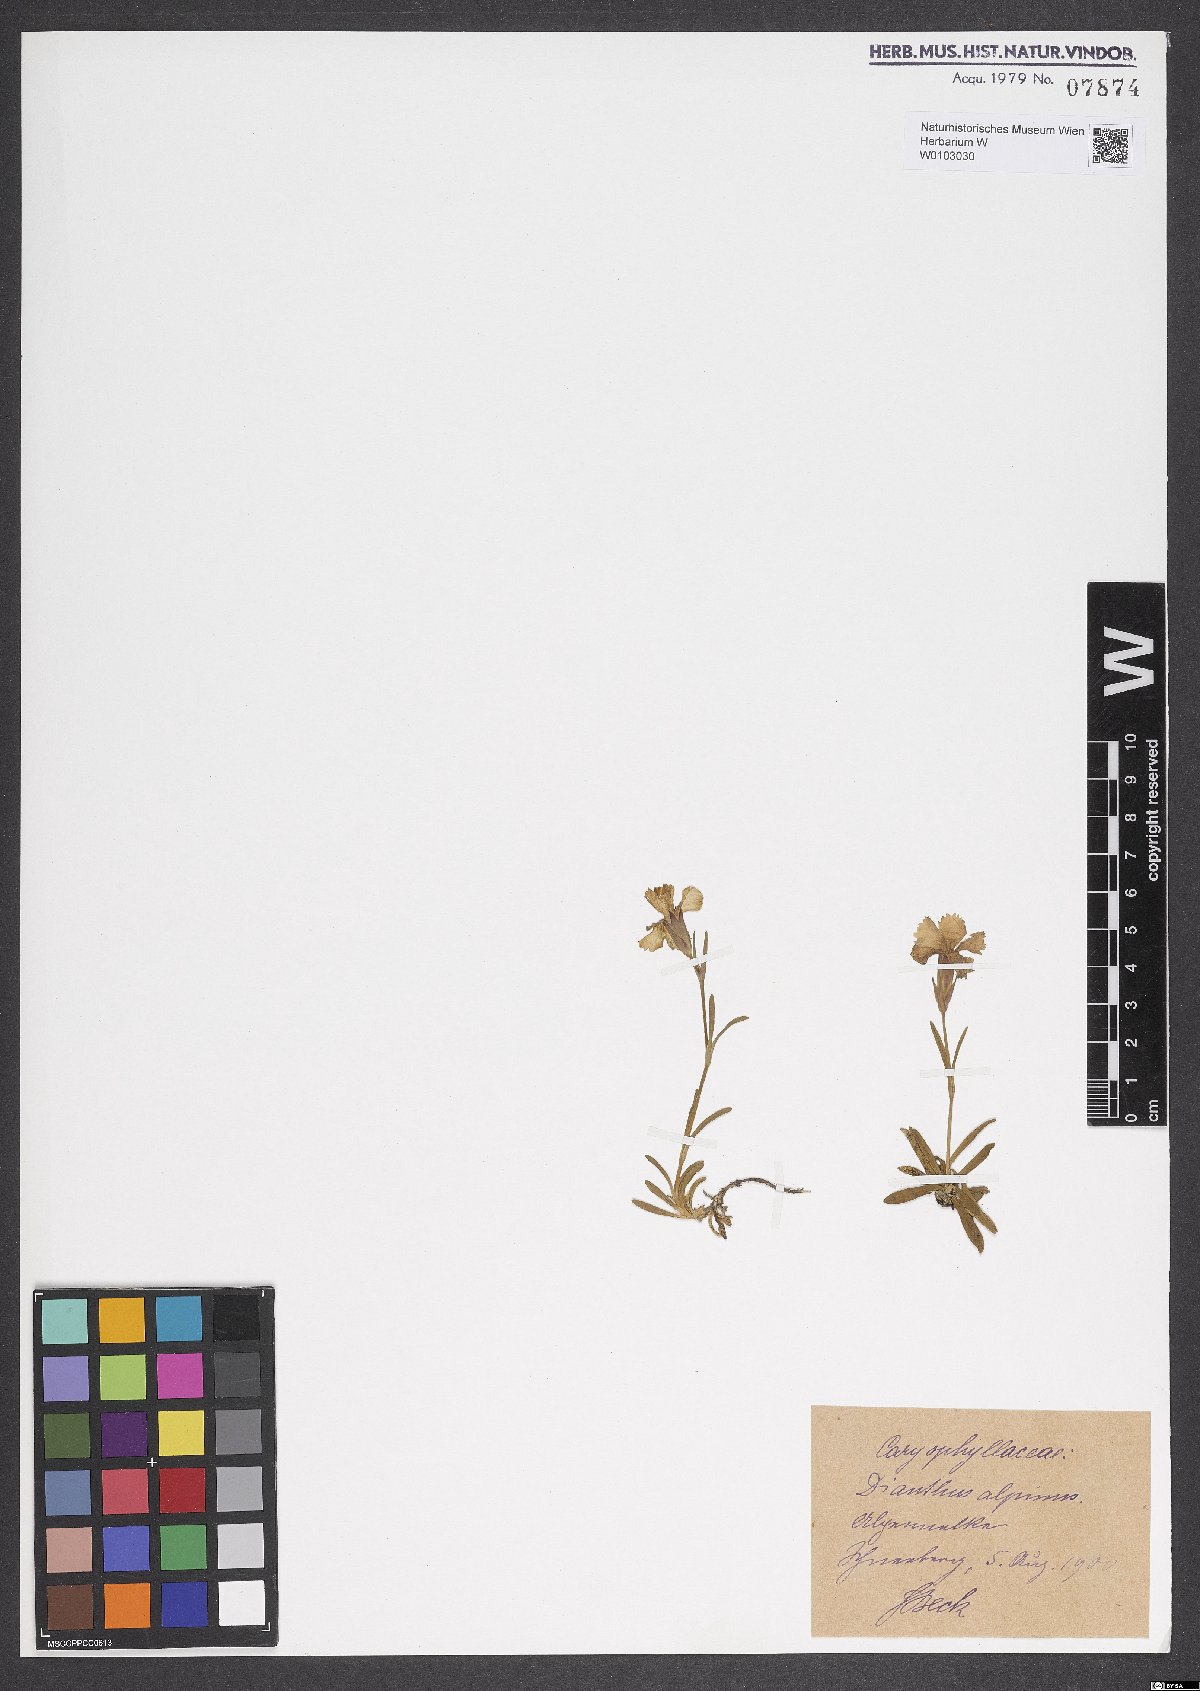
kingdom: Plantae
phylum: Tracheophyta
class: Magnoliopsida
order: Caryophyllales
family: Caryophyllaceae
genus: Dianthus
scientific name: Dianthus alpinus
